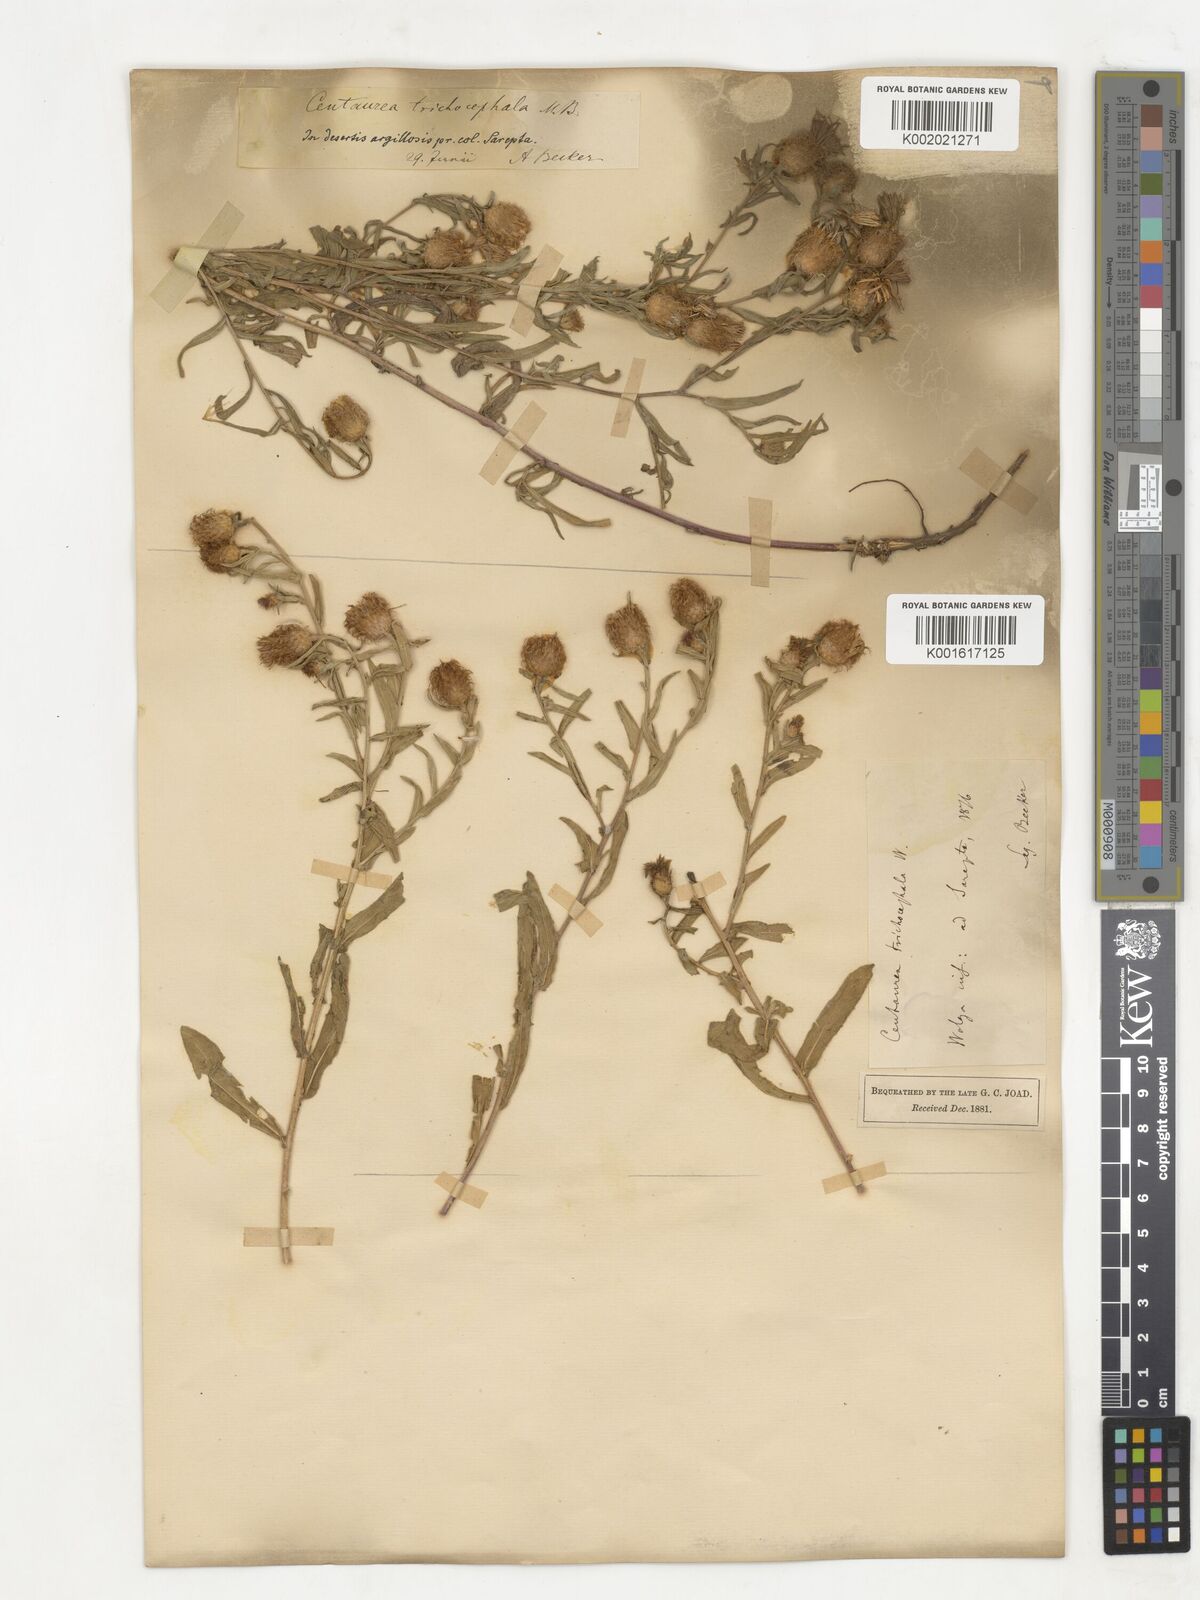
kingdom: Plantae
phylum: Tracheophyta
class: Magnoliopsida
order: Asterales
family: Asteraceae
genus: Centaurea
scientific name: Centaurea trichocephala
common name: Feather-head knapweed
